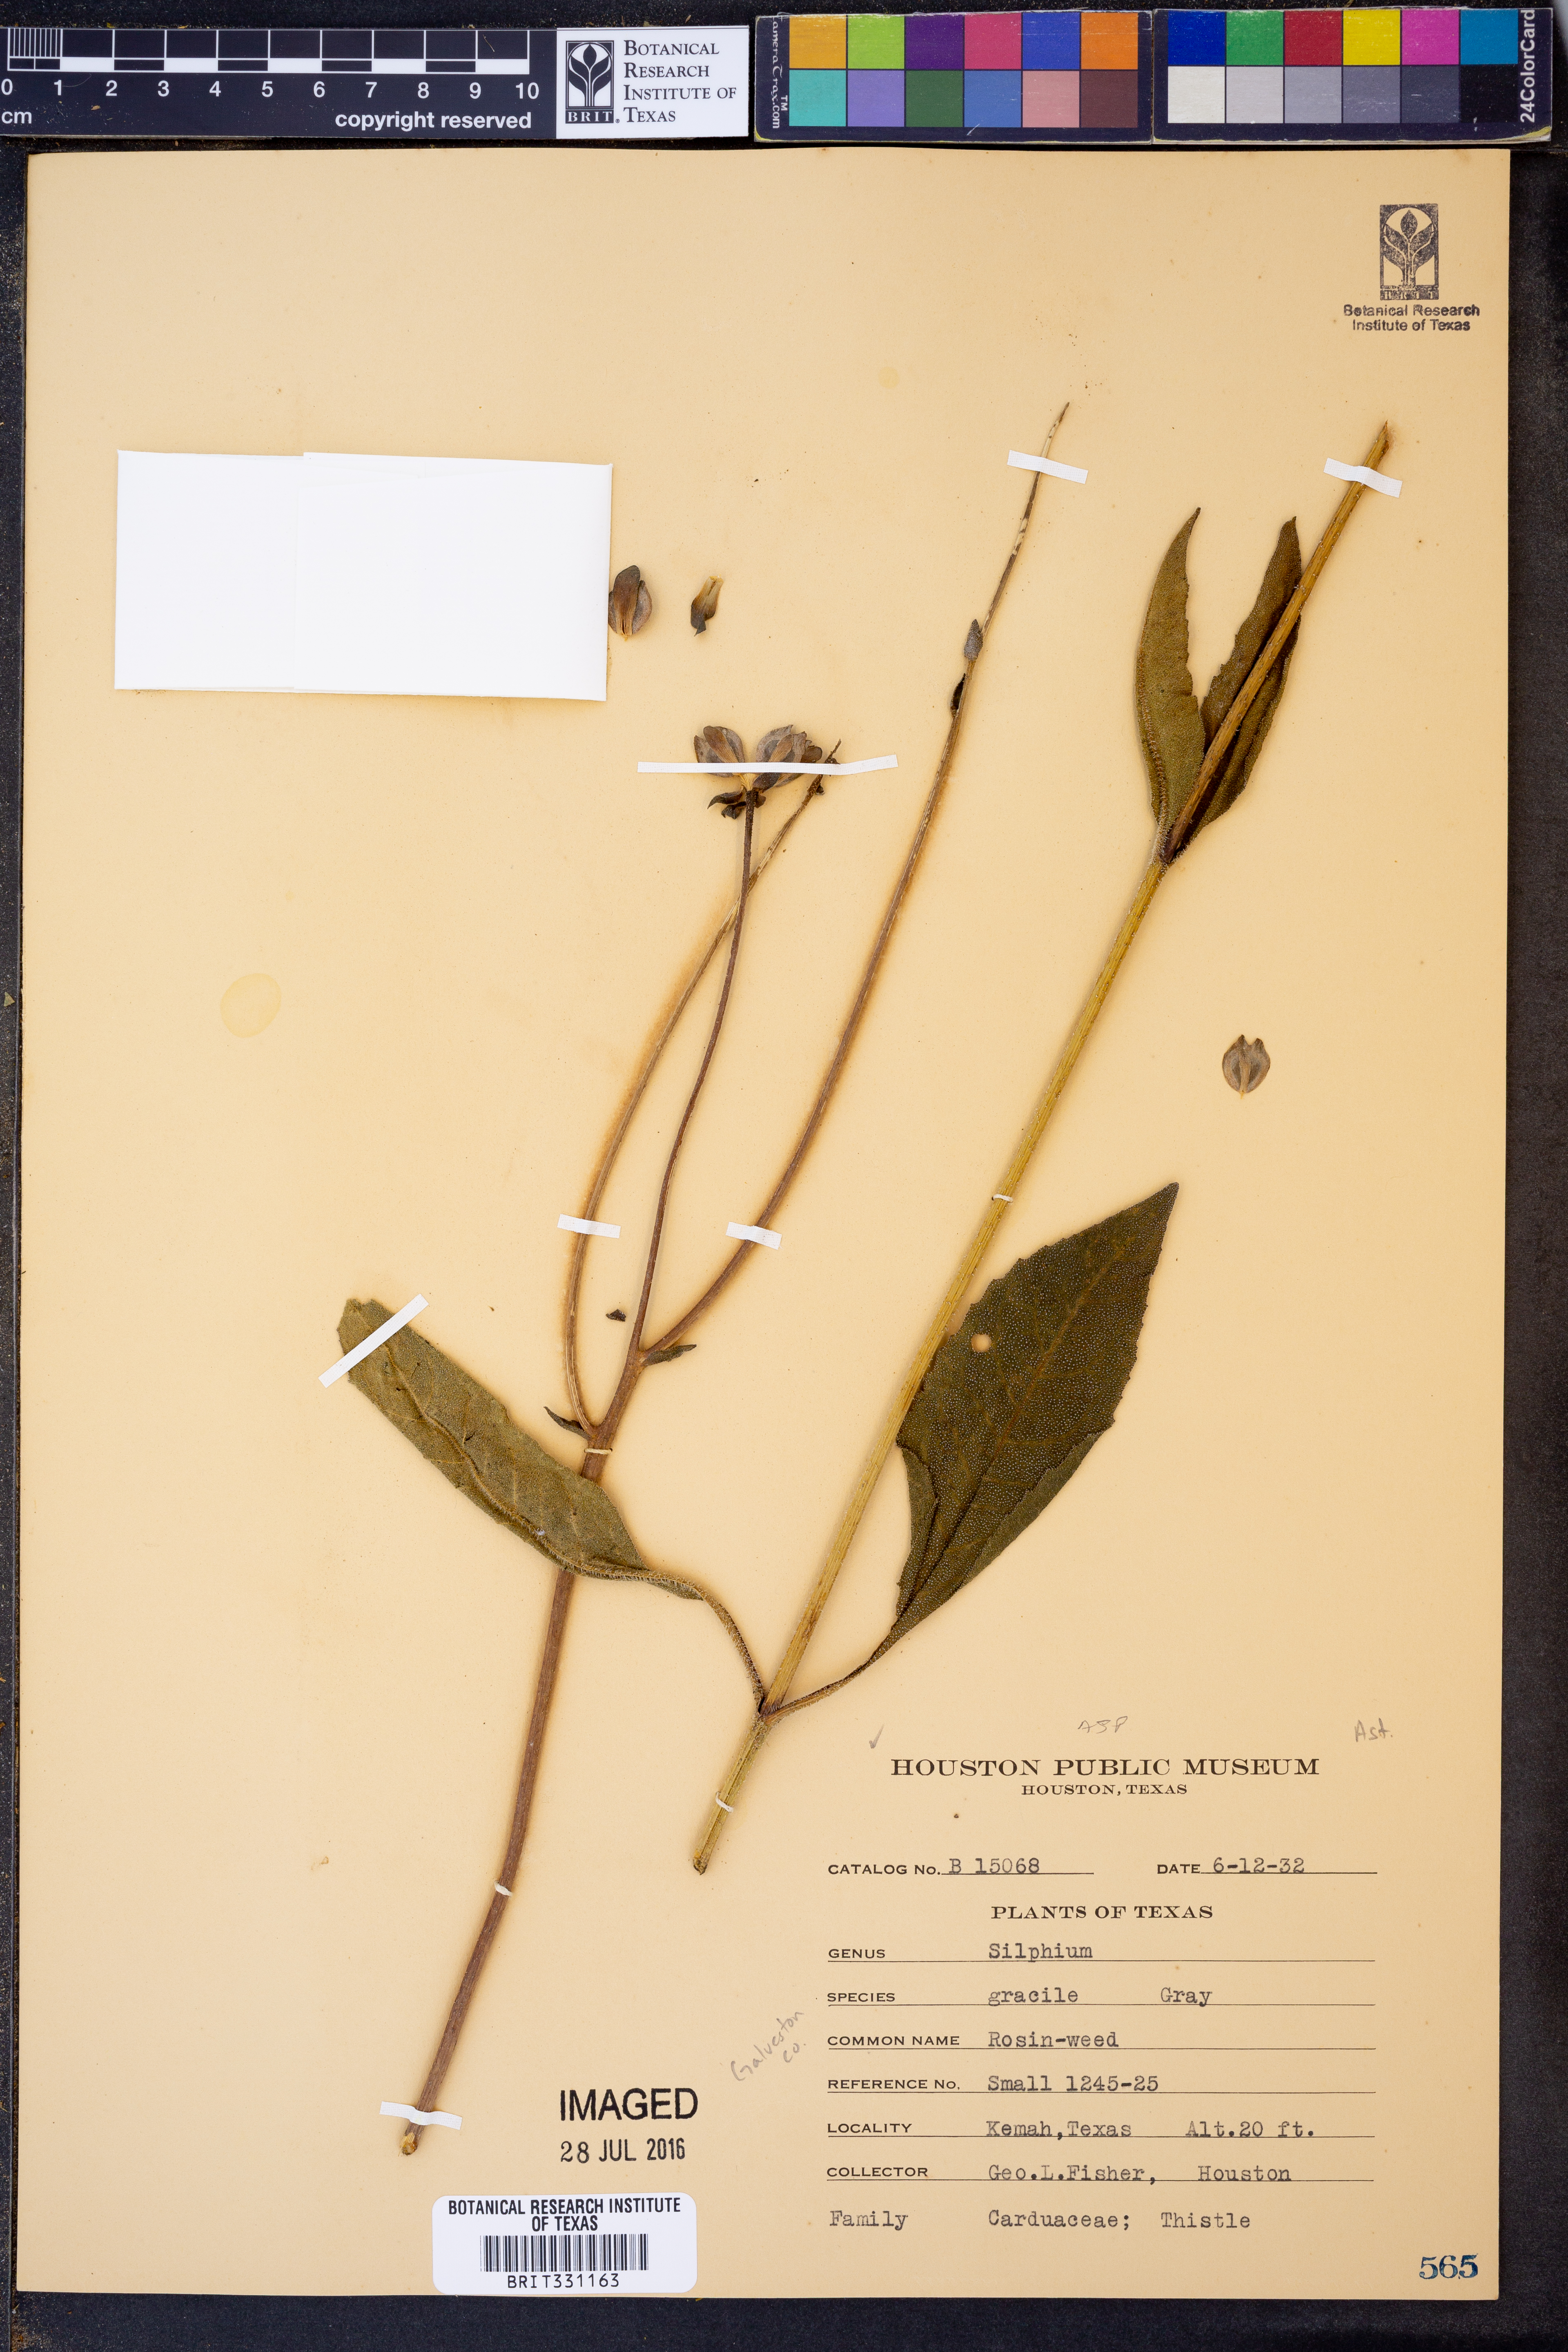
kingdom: Plantae
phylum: Tracheophyta
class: Magnoliopsida
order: Asterales
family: Asteraceae
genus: Silphium
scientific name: Silphium radula
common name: Roughleaf rosinweed
